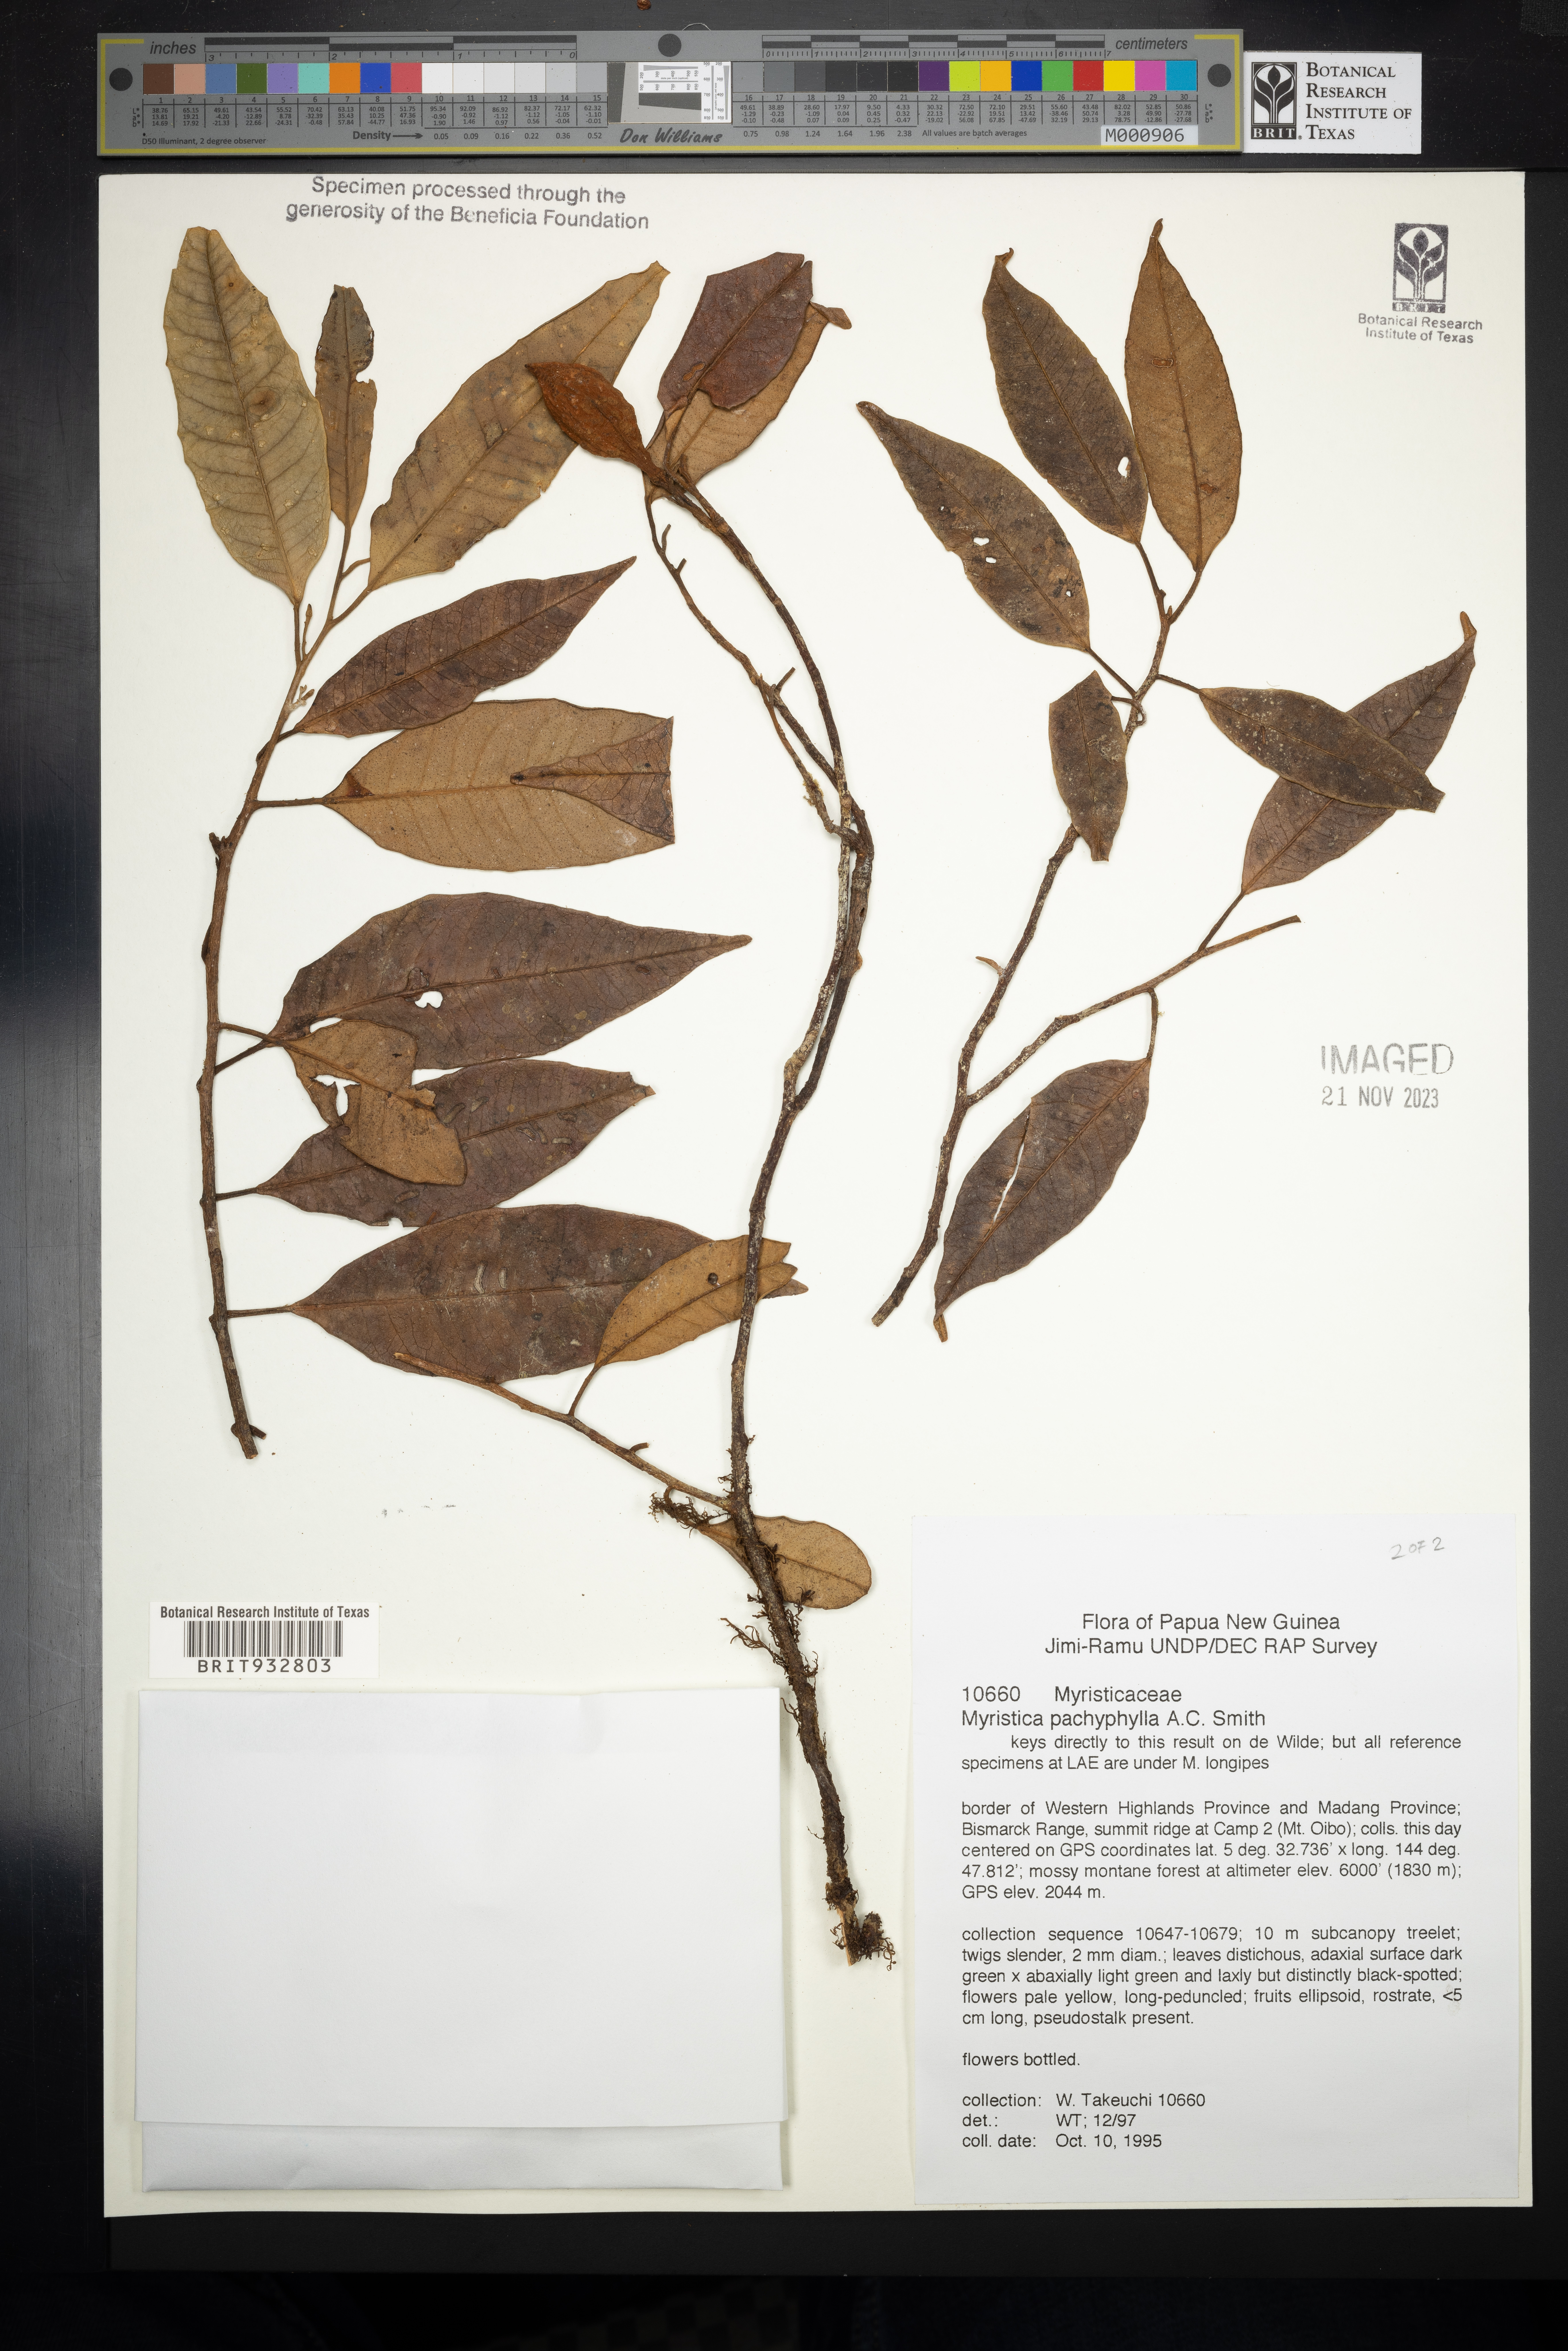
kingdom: Plantae
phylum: Tracheophyta
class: Magnoliopsida
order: Magnoliales
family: Myristicaceae
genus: Myristica
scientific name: Myristica
